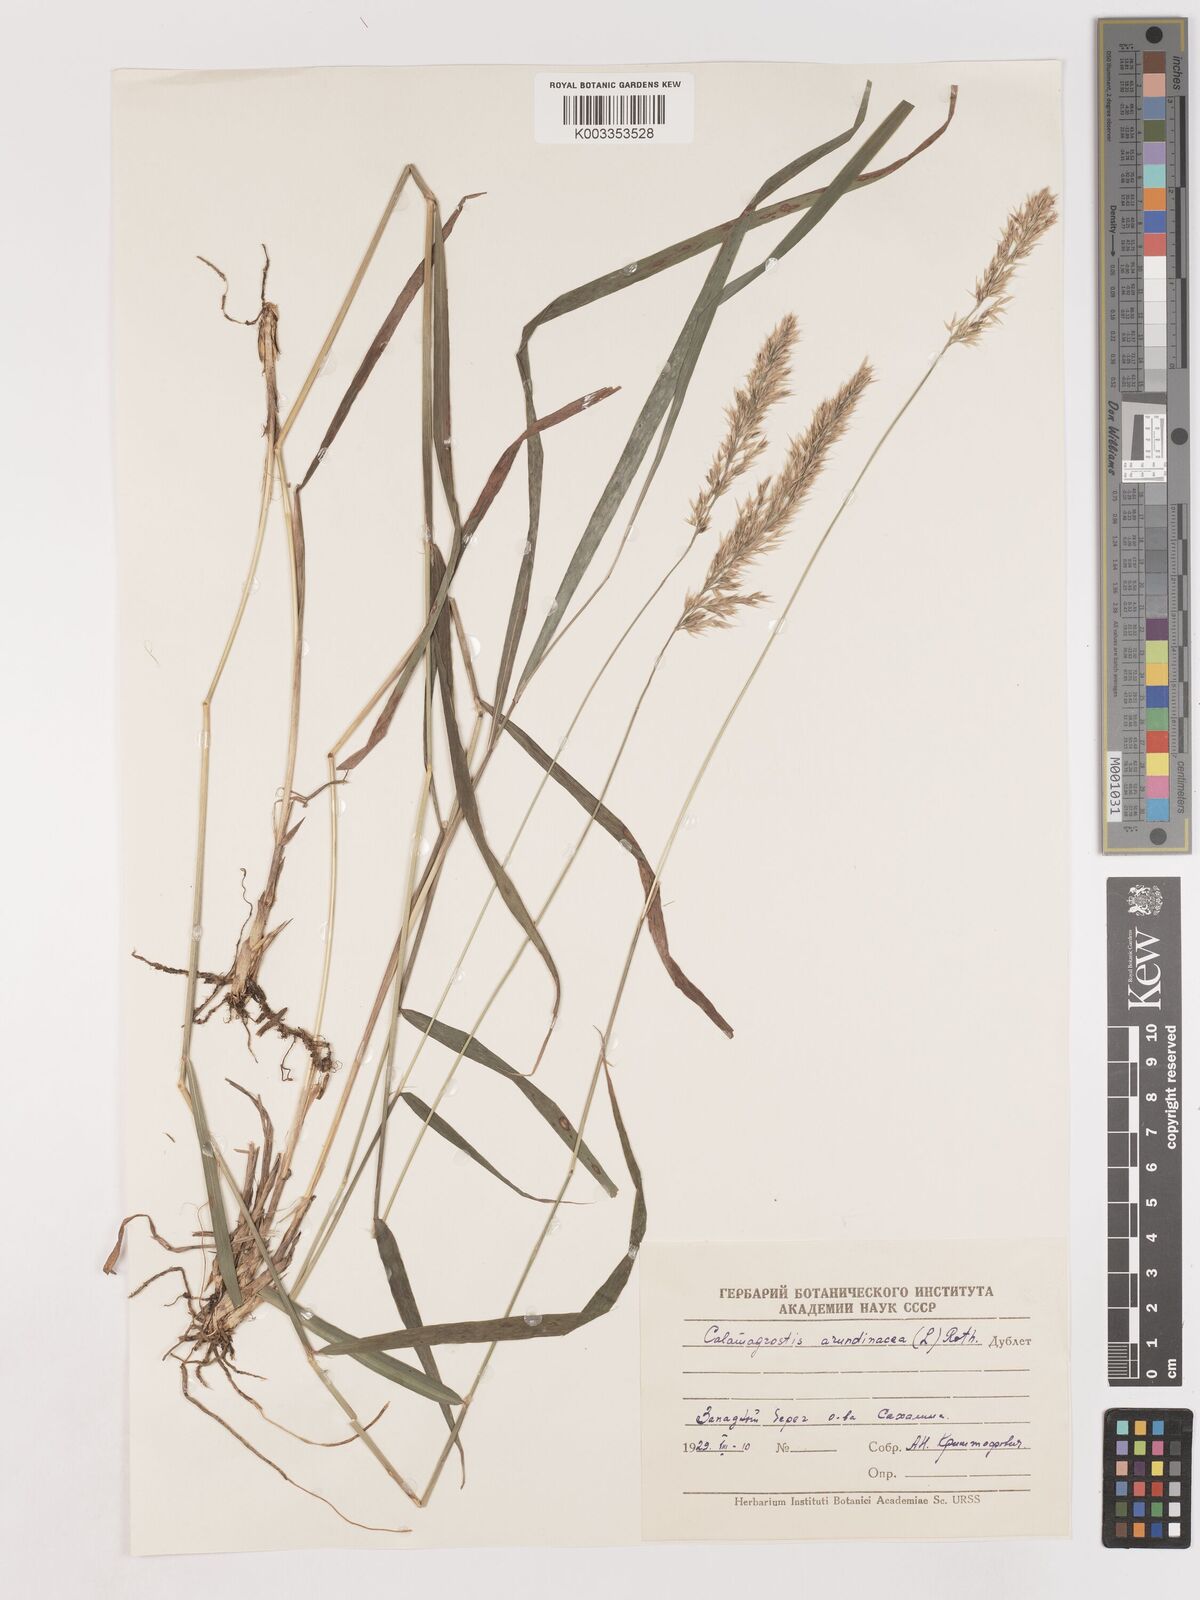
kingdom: Plantae
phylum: Tracheophyta
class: Liliopsida
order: Poales
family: Poaceae
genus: Calamagrostis
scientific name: Calamagrostis
